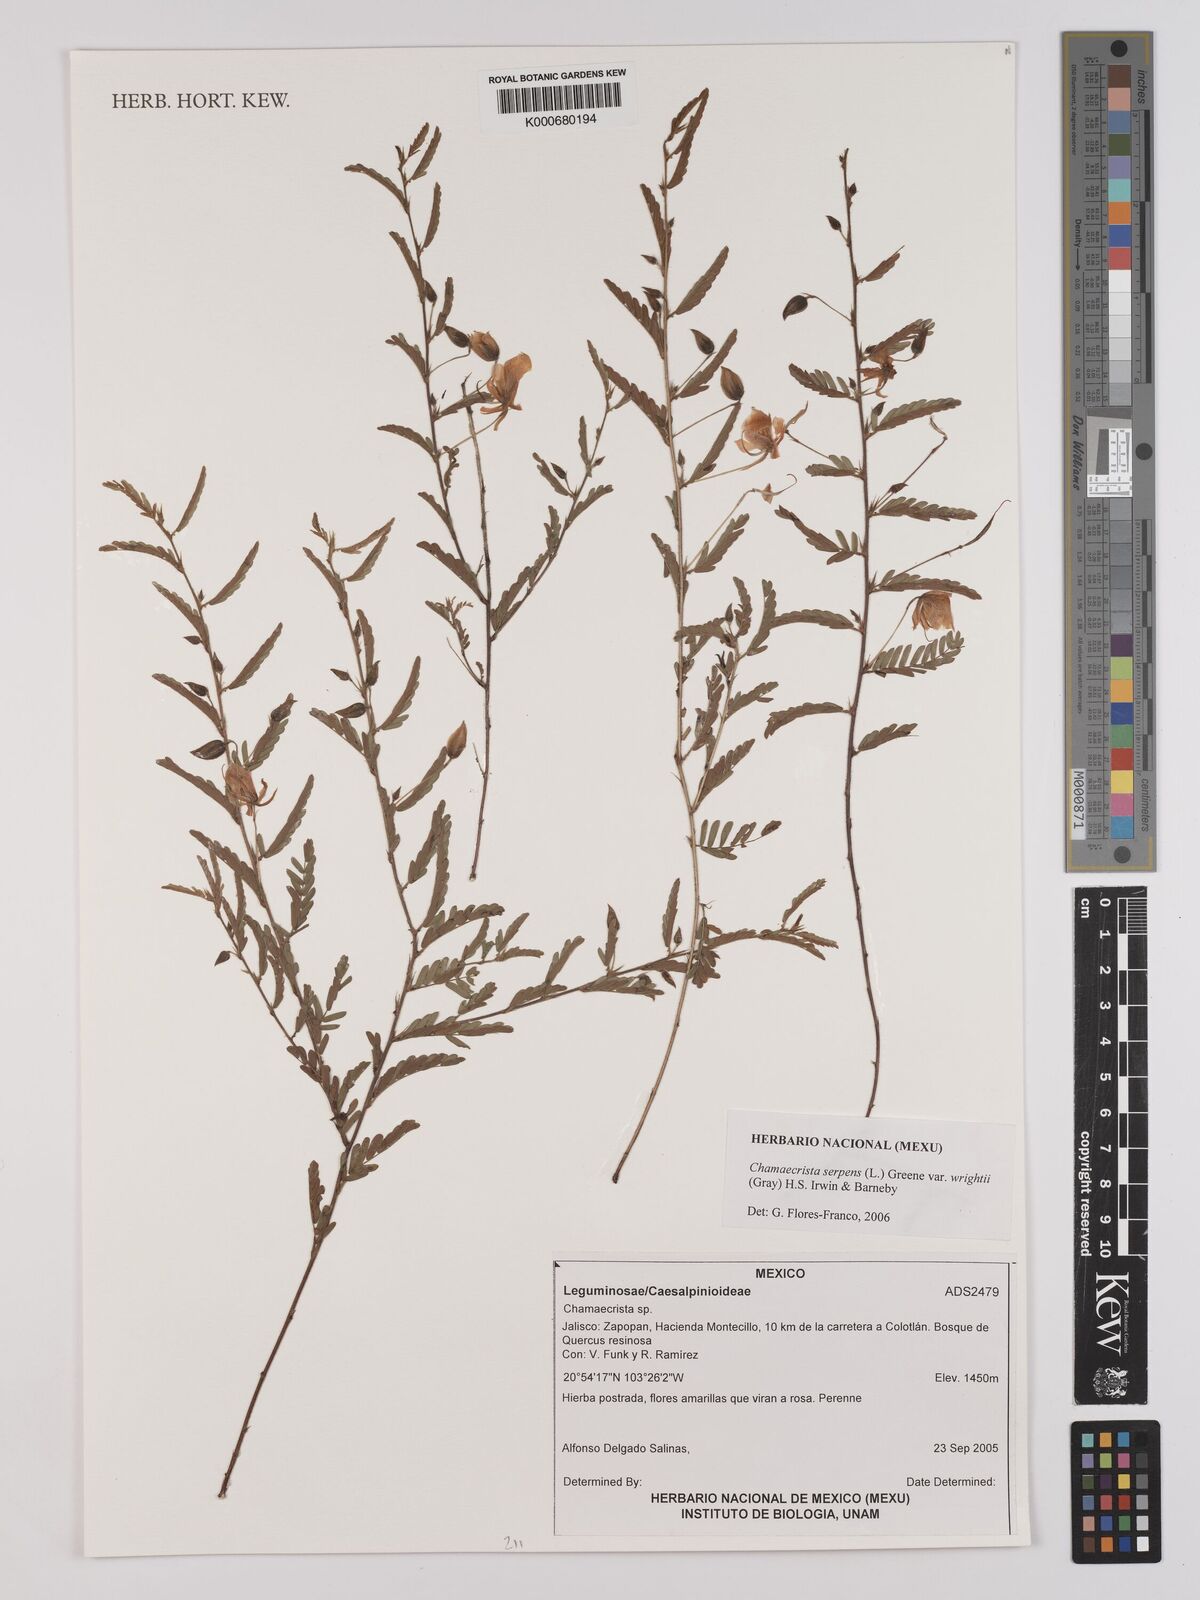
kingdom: Plantae
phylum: Tracheophyta
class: Magnoliopsida
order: Fabales
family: Fabaceae
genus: Chamaecrista
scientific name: Chamaecrista serpens
